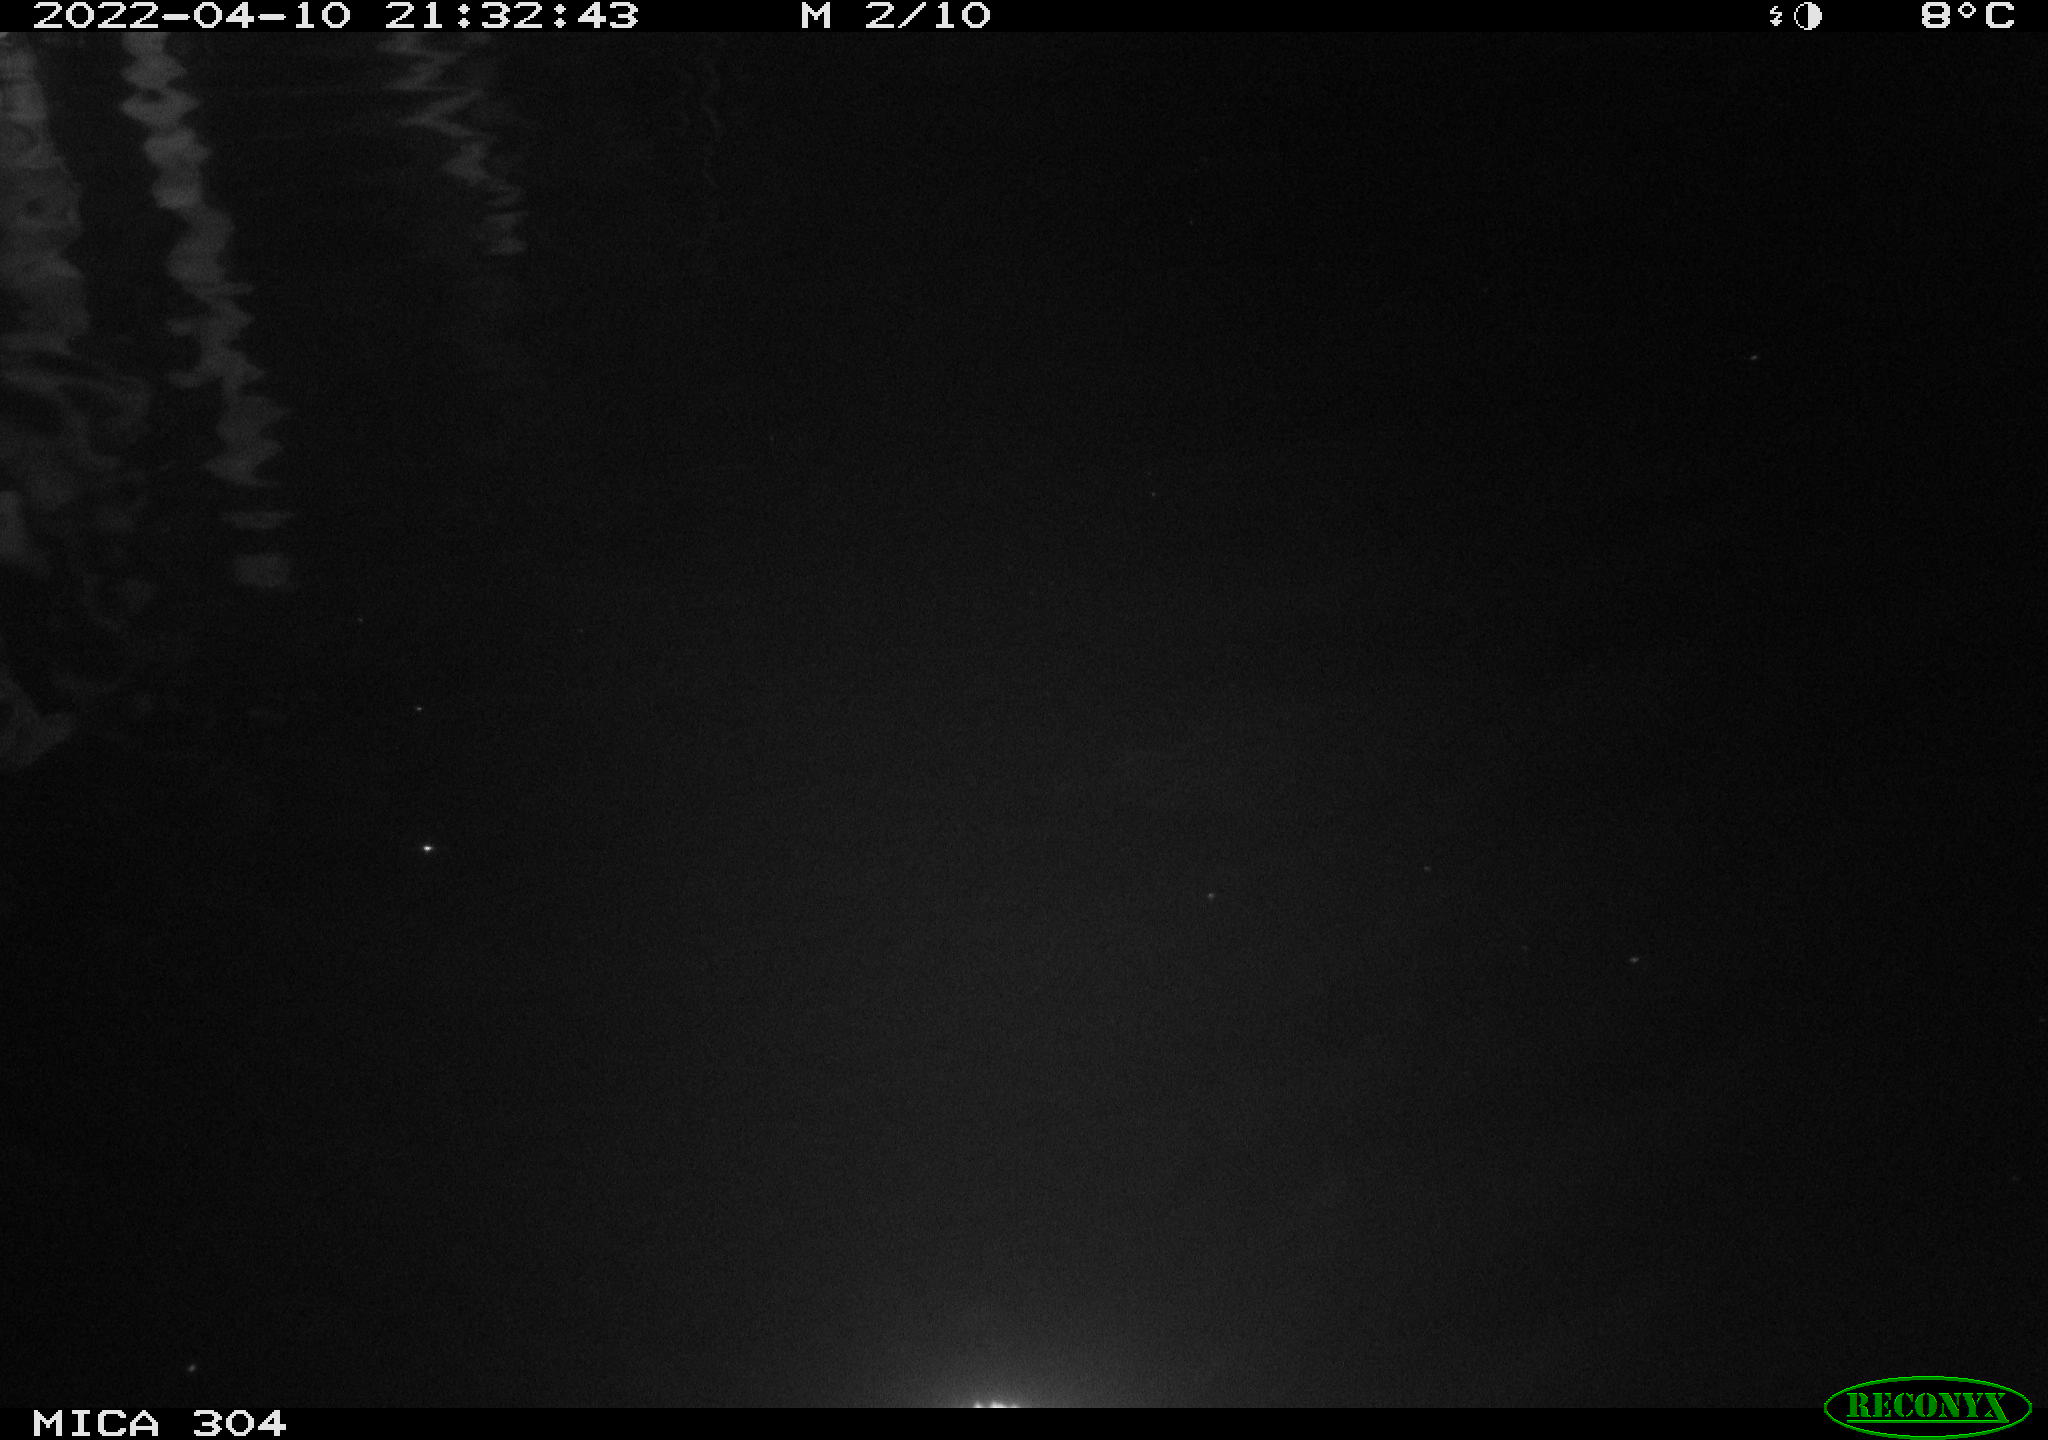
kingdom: Animalia
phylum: Chordata
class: Aves
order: Anseriformes
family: Anatidae
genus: Anas
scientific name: Anas platyrhynchos
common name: Mallard
